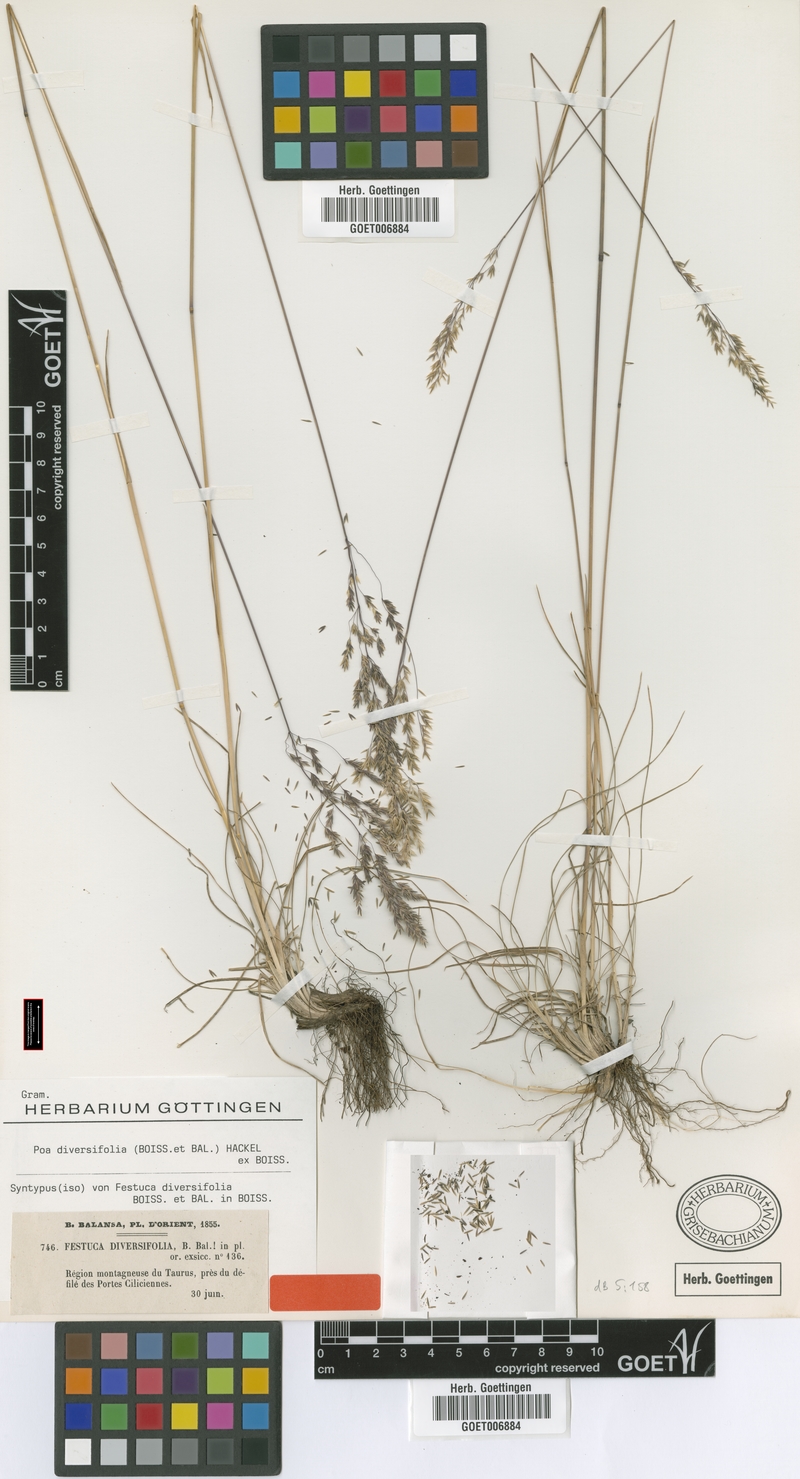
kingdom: Plantae
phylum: Tracheophyta
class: Liliopsida
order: Poales
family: Poaceae
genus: Poa
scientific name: Poa diversifolia
